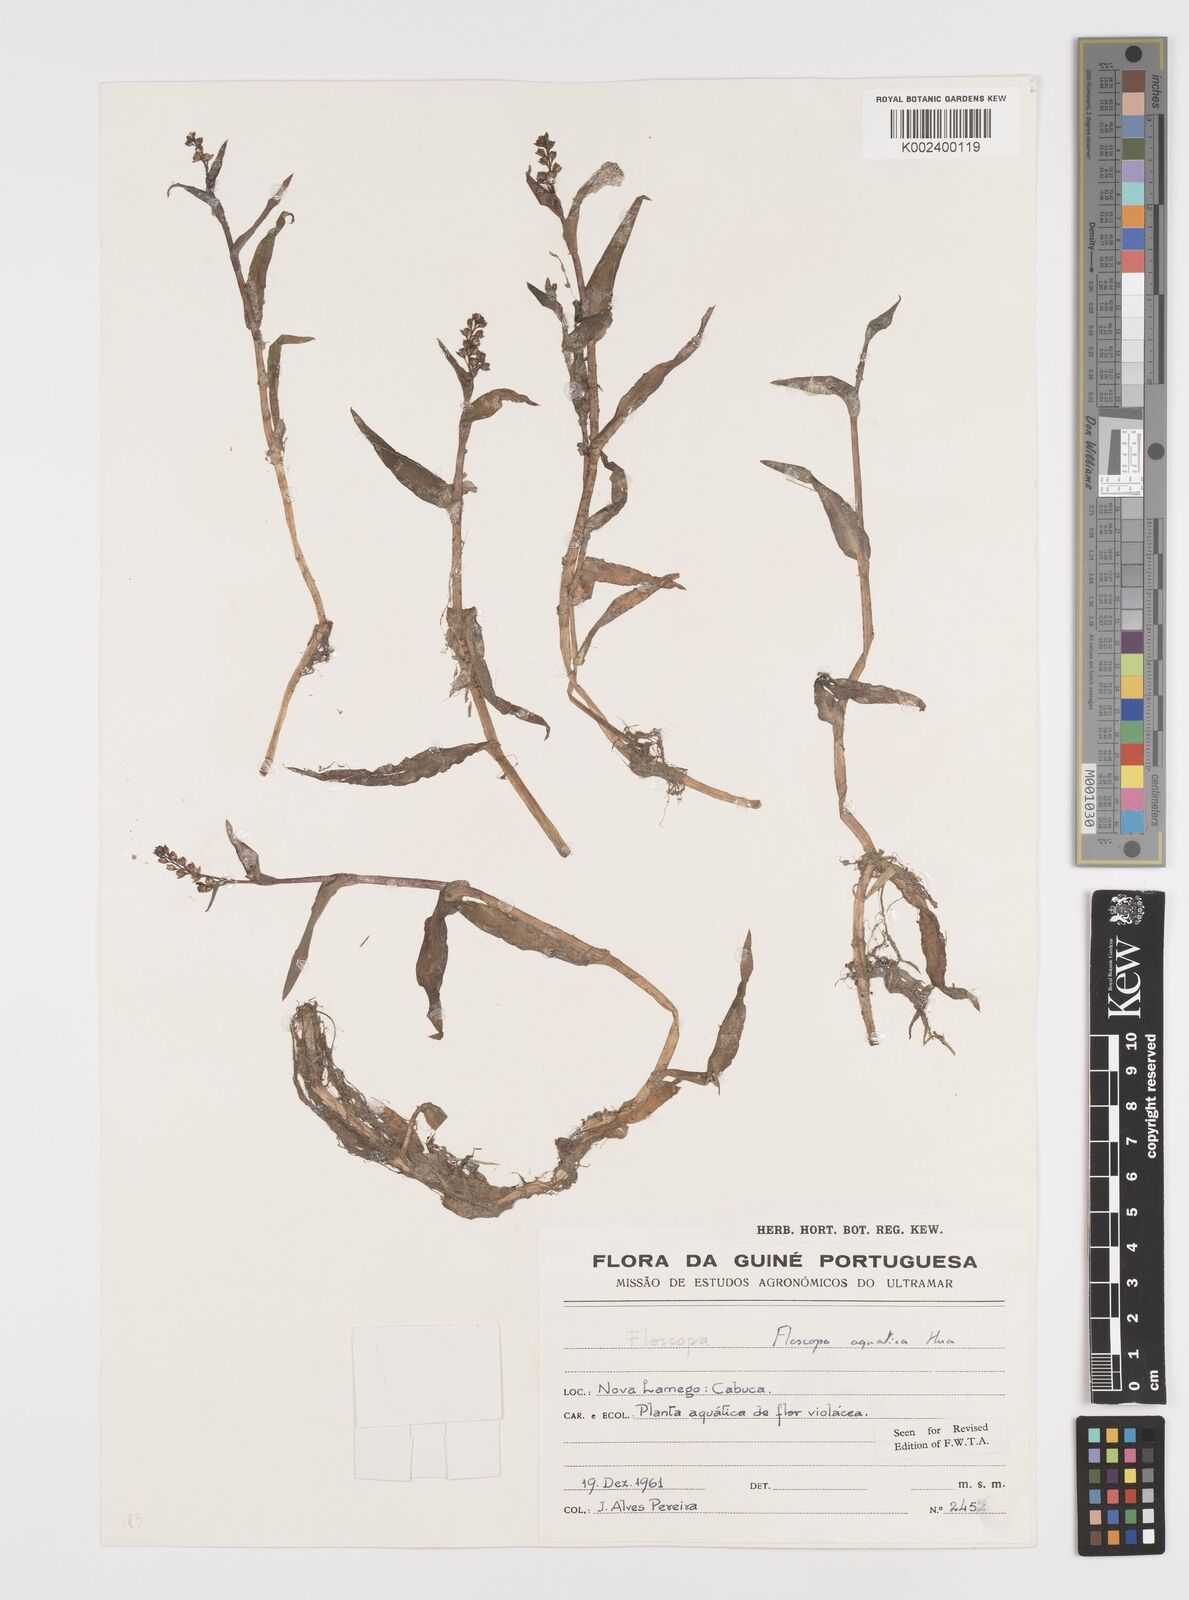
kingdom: Plantae
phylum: Tracheophyta
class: Liliopsida
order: Commelinales
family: Commelinaceae
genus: Floscopa
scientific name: Floscopa aquatica
